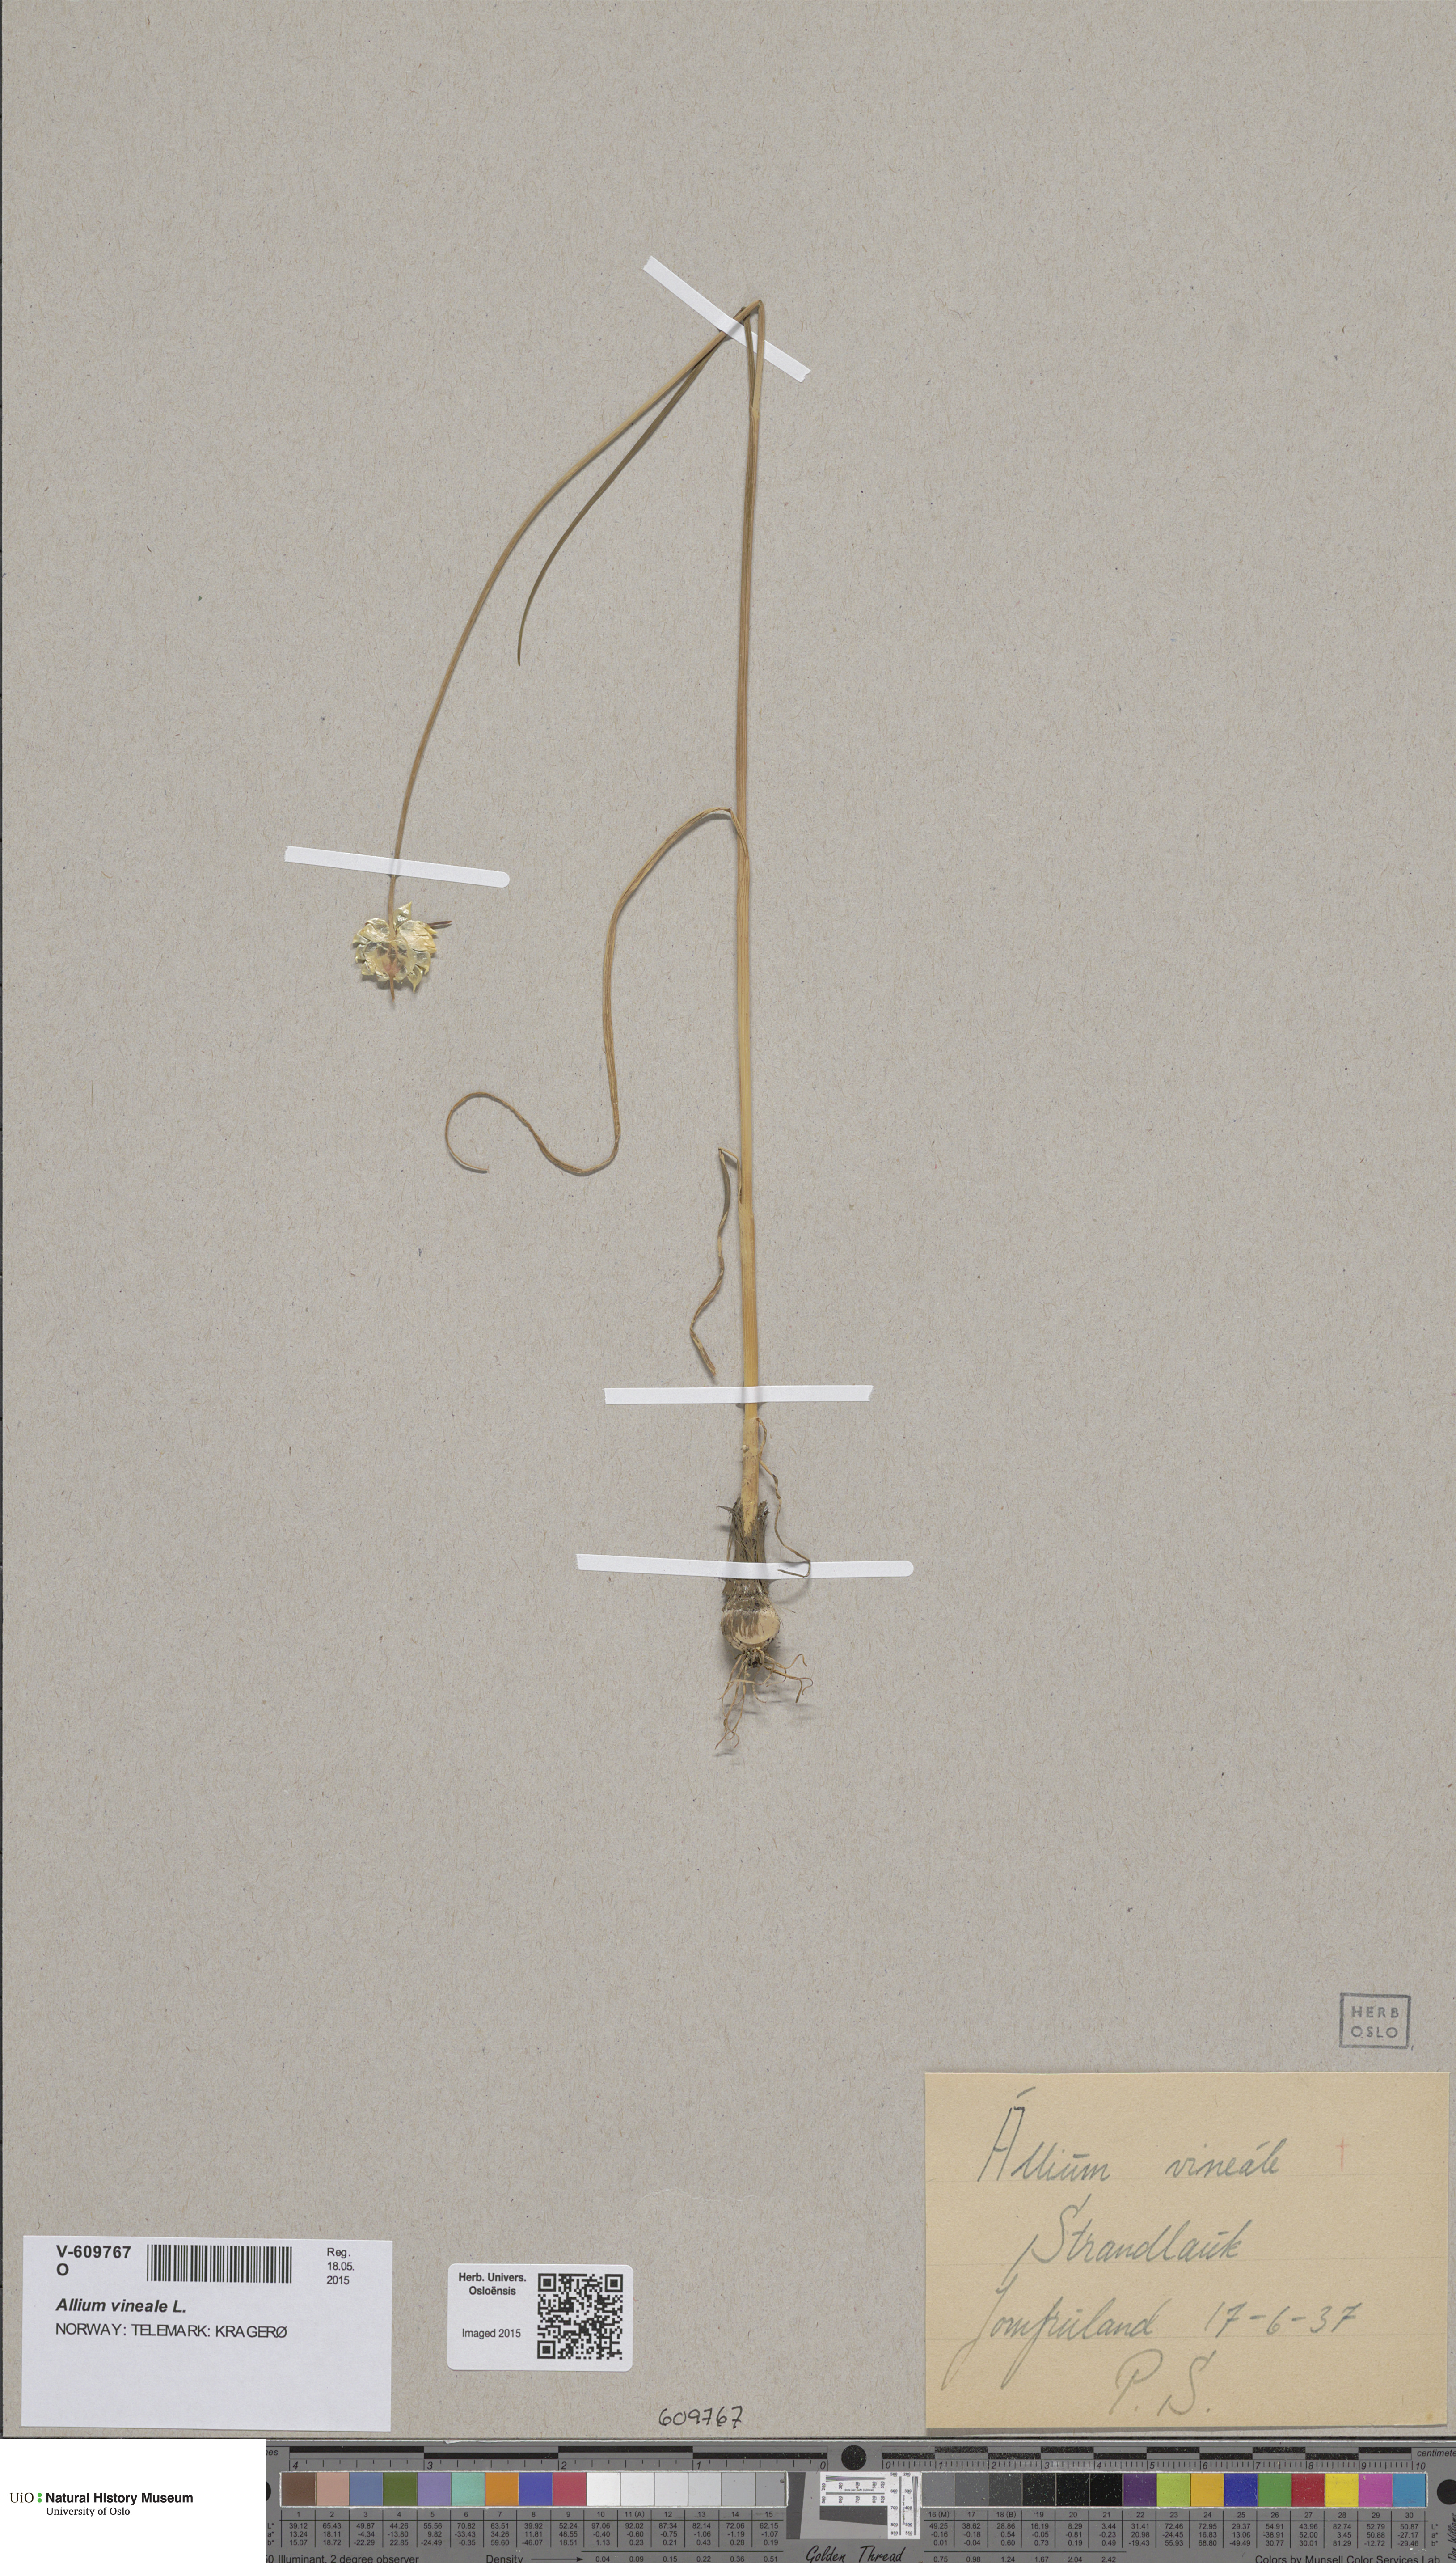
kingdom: Plantae
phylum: Tracheophyta
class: Liliopsida
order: Asparagales
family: Amaryllidaceae
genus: Allium
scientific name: Allium vineale
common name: Crow garlic
